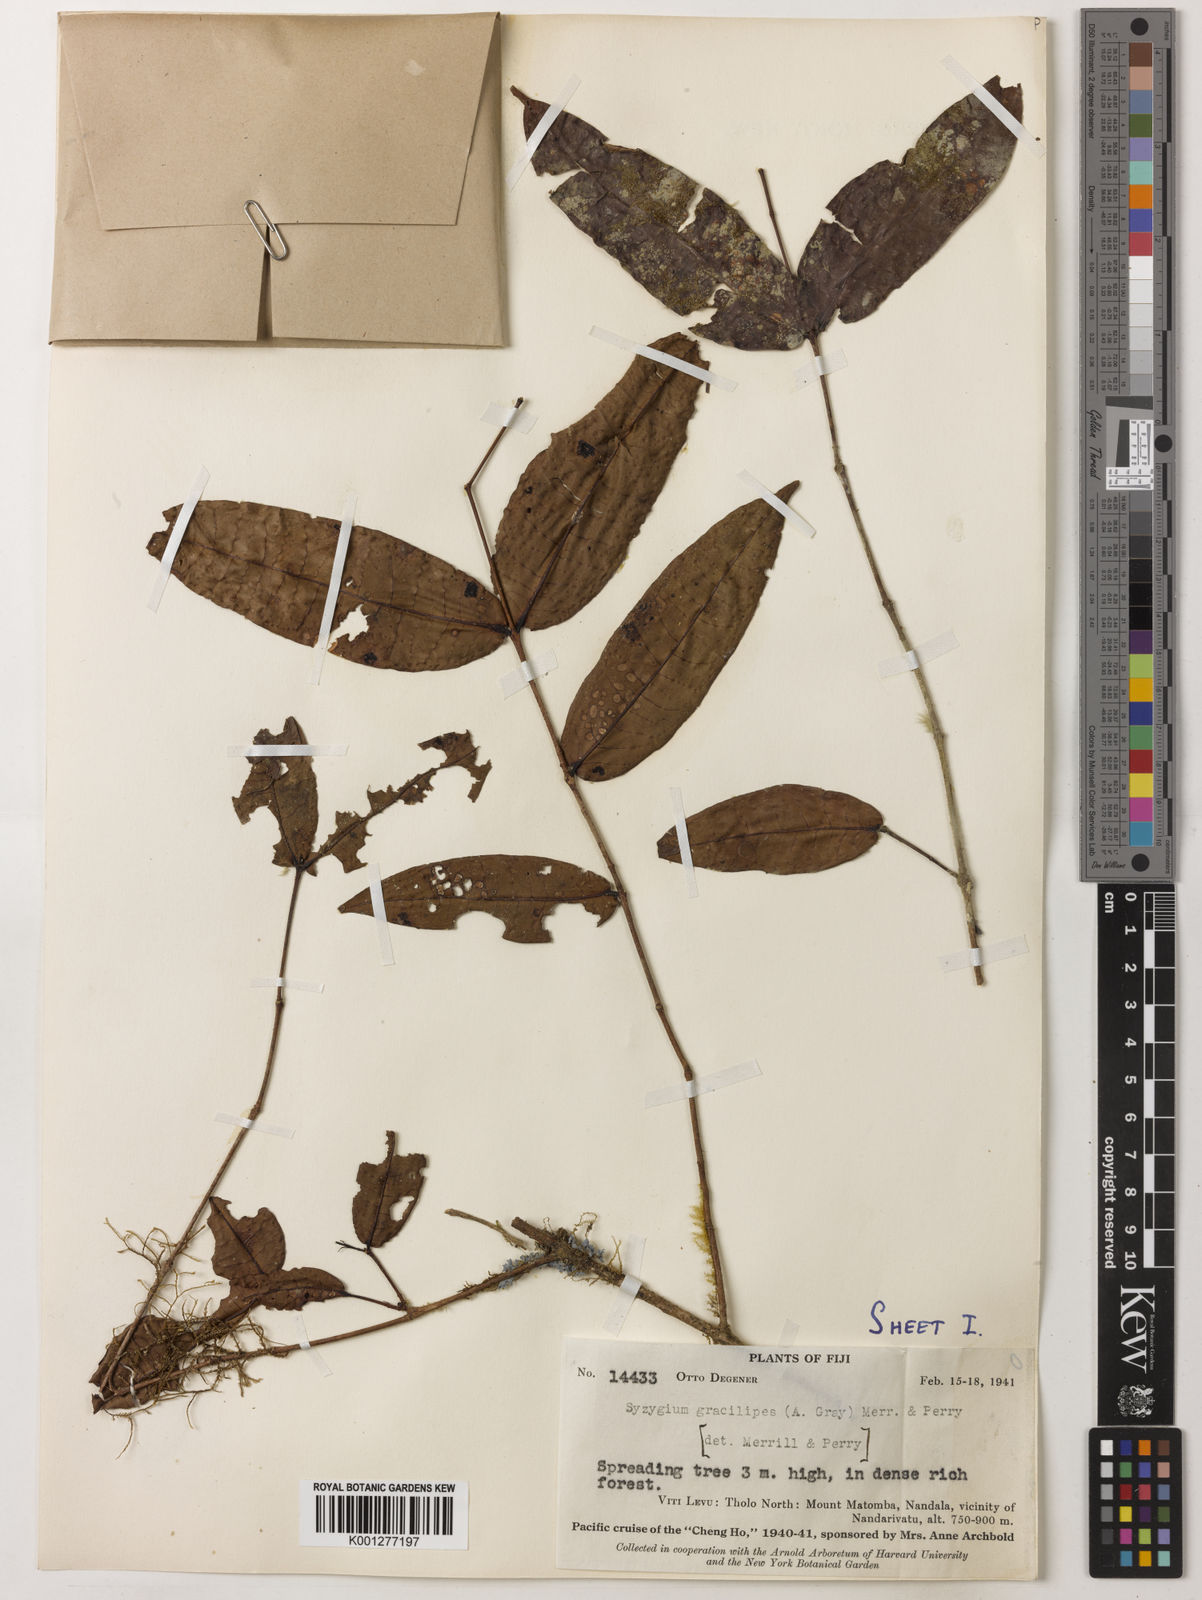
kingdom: Plantae
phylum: Tracheophyta
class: Magnoliopsida
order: Myrtales
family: Myrtaceae
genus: Syzygium
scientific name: Syzygium gracilipes
